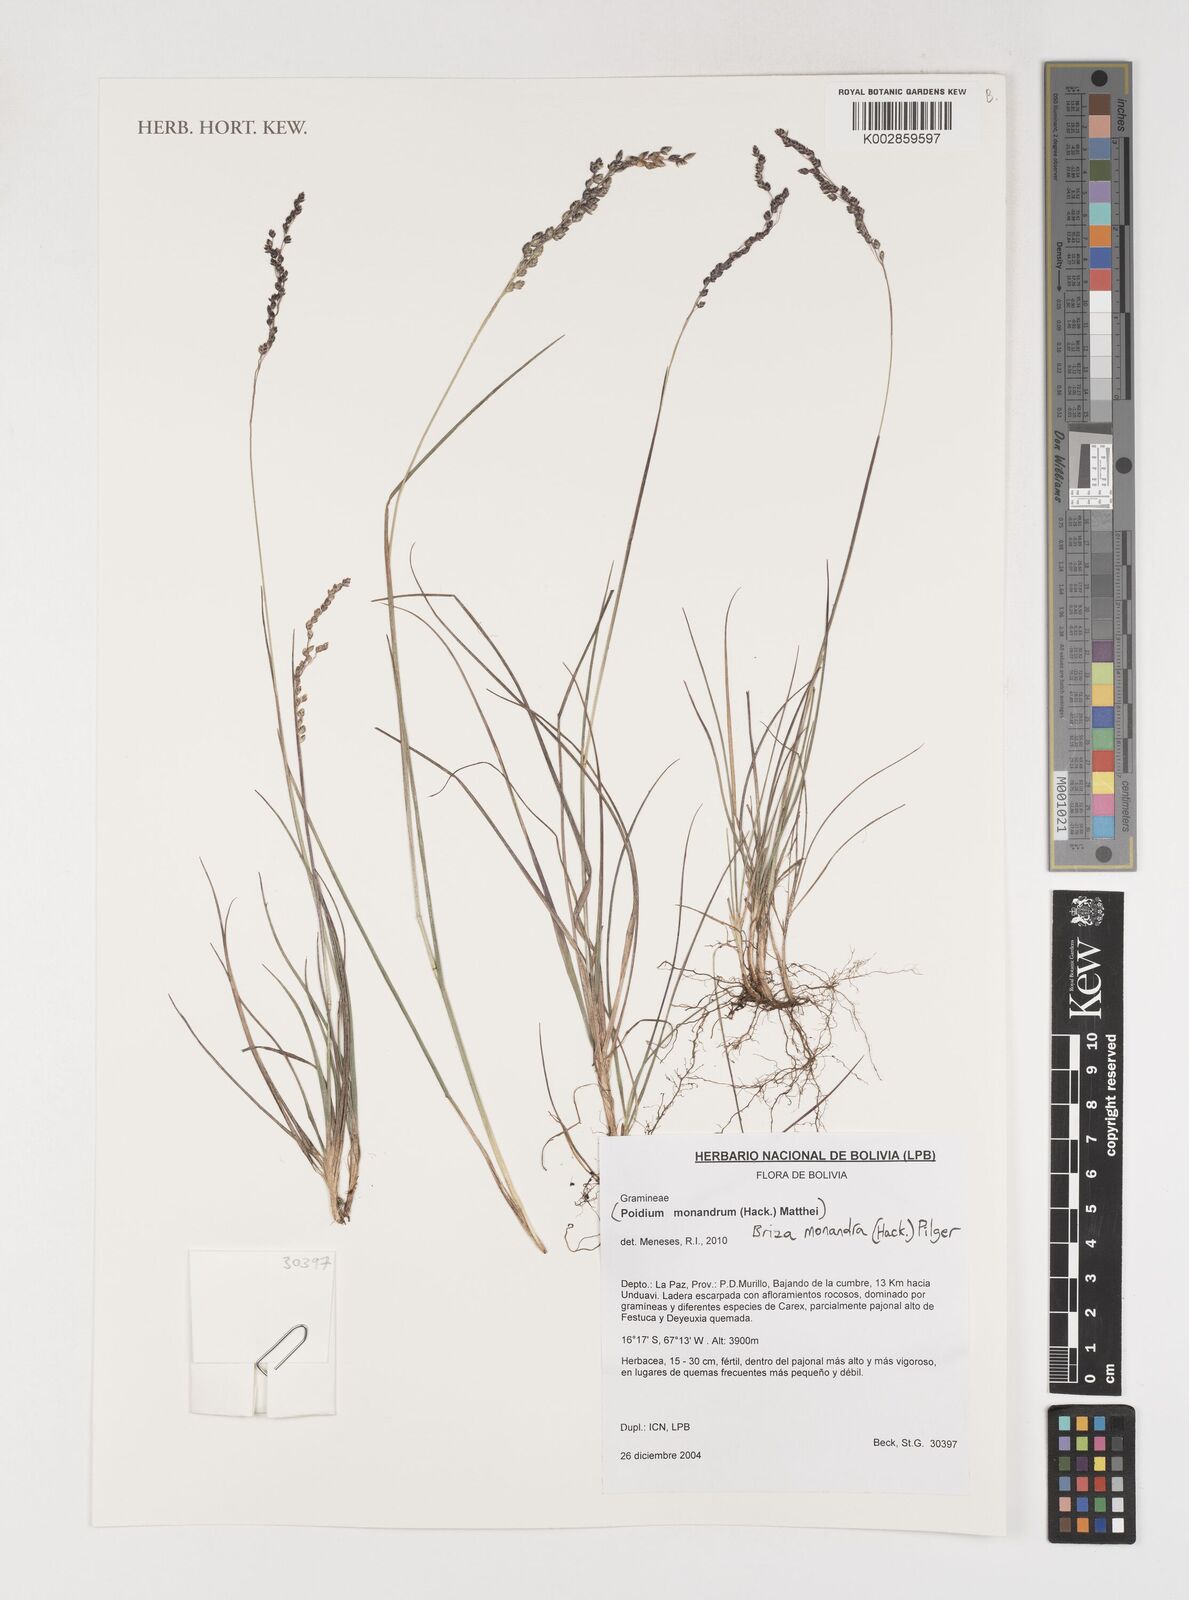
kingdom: Plantae
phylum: Tracheophyta
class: Liliopsida
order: Poales
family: Poaceae
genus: Poidium
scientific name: Poidium monandrum
